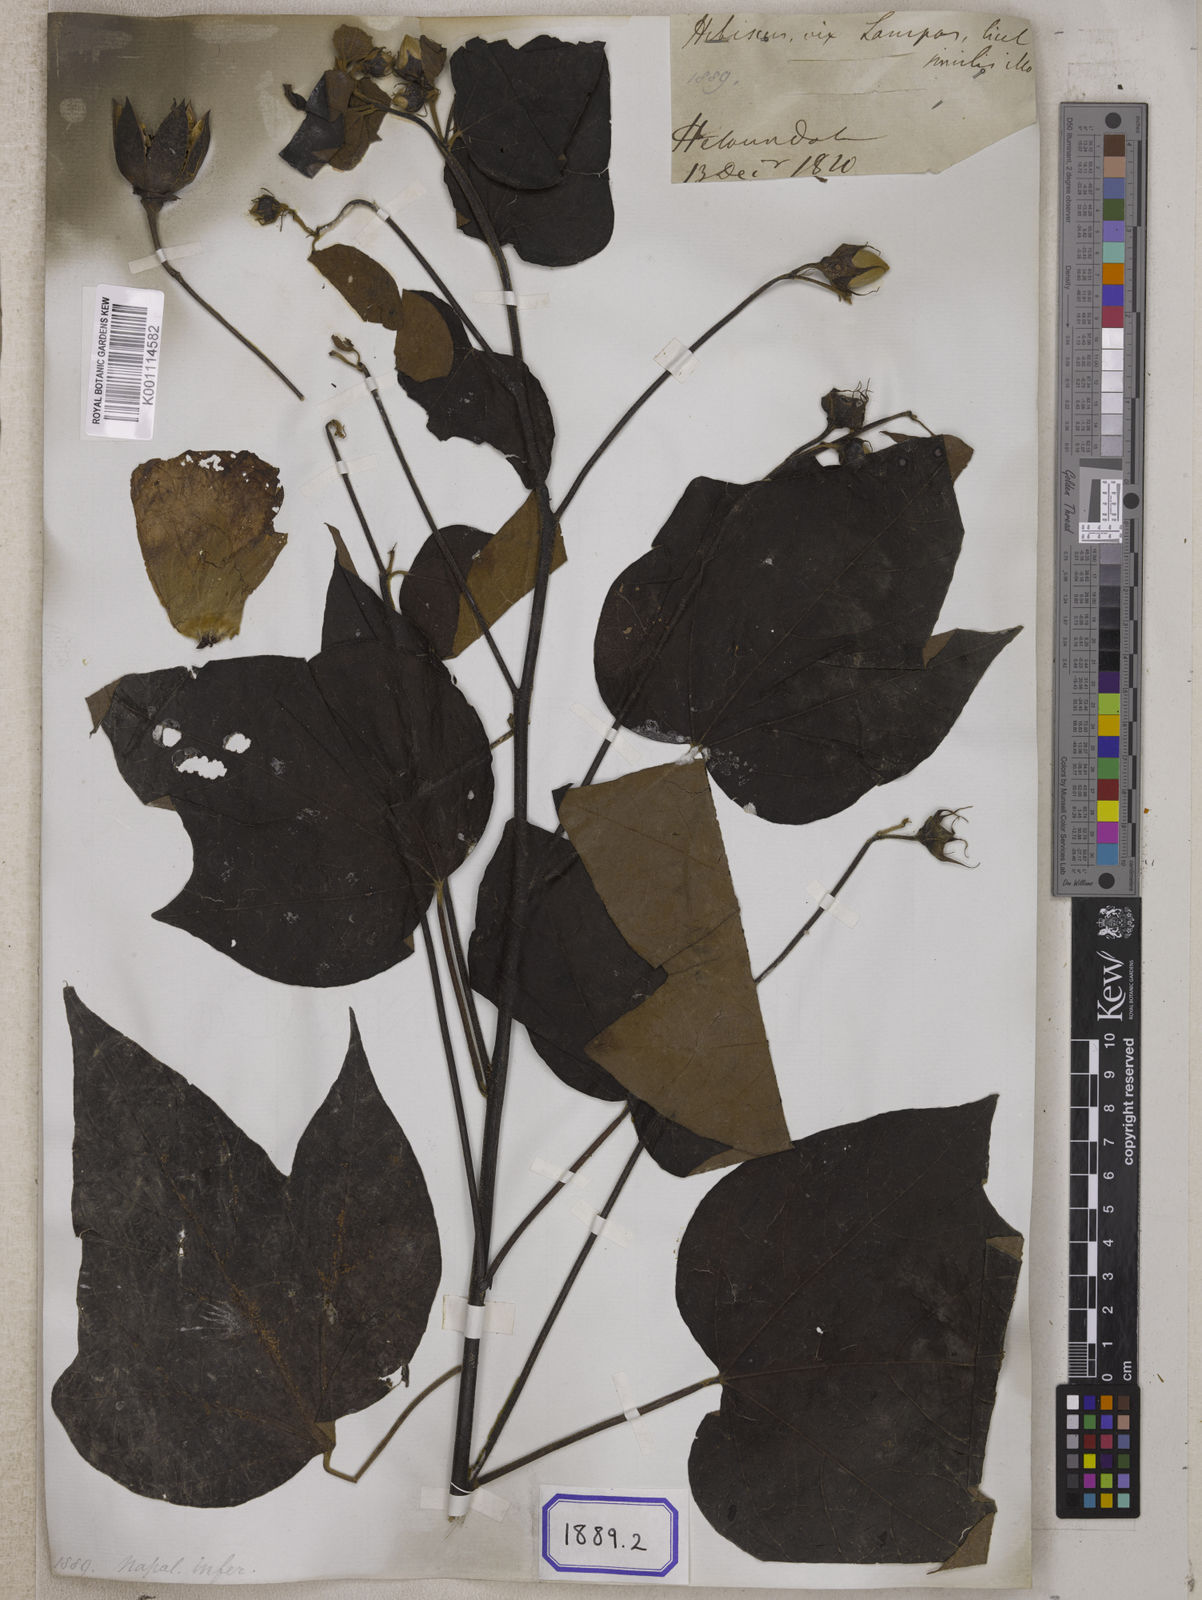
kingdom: Plantae
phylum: Tracheophyta
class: Magnoliopsida
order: Malvales
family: Malvaceae
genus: Thespesia
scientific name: Thespesia lampas
